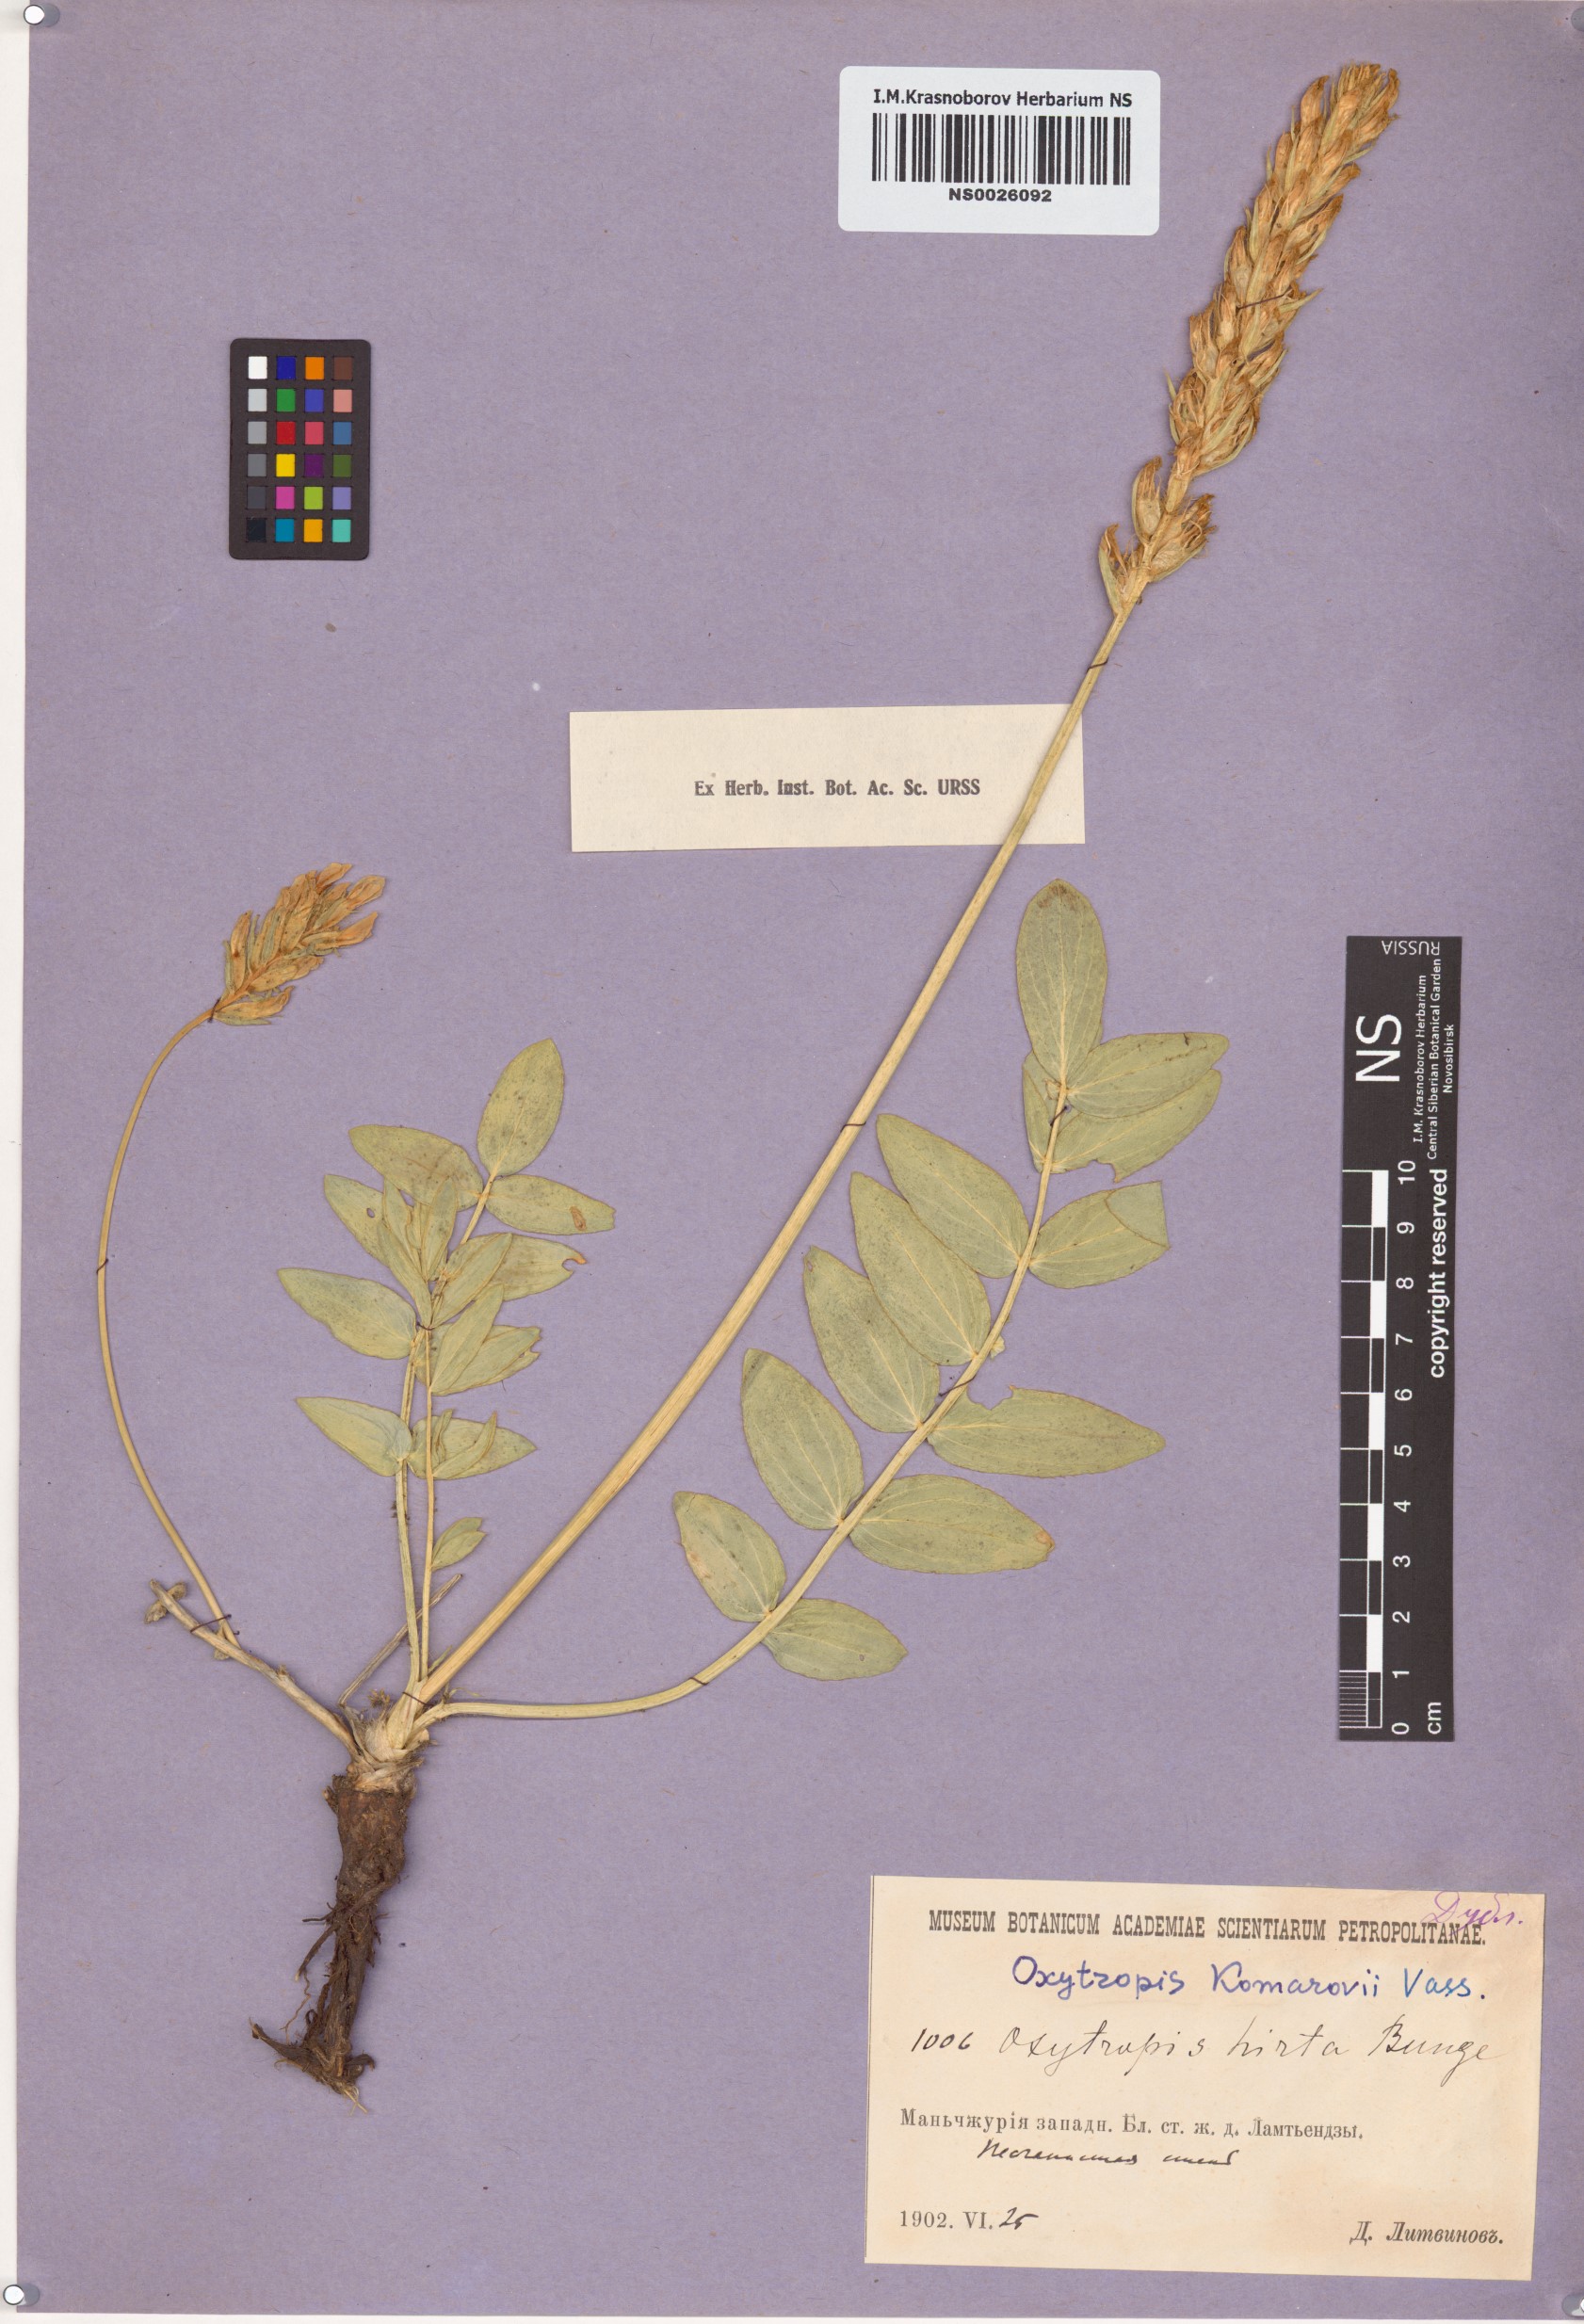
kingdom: Plantae
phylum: Tracheophyta
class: Magnoliopsida
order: Fabales
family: Fabaceae
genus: Oxytropis
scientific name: Oxytropis hirta
